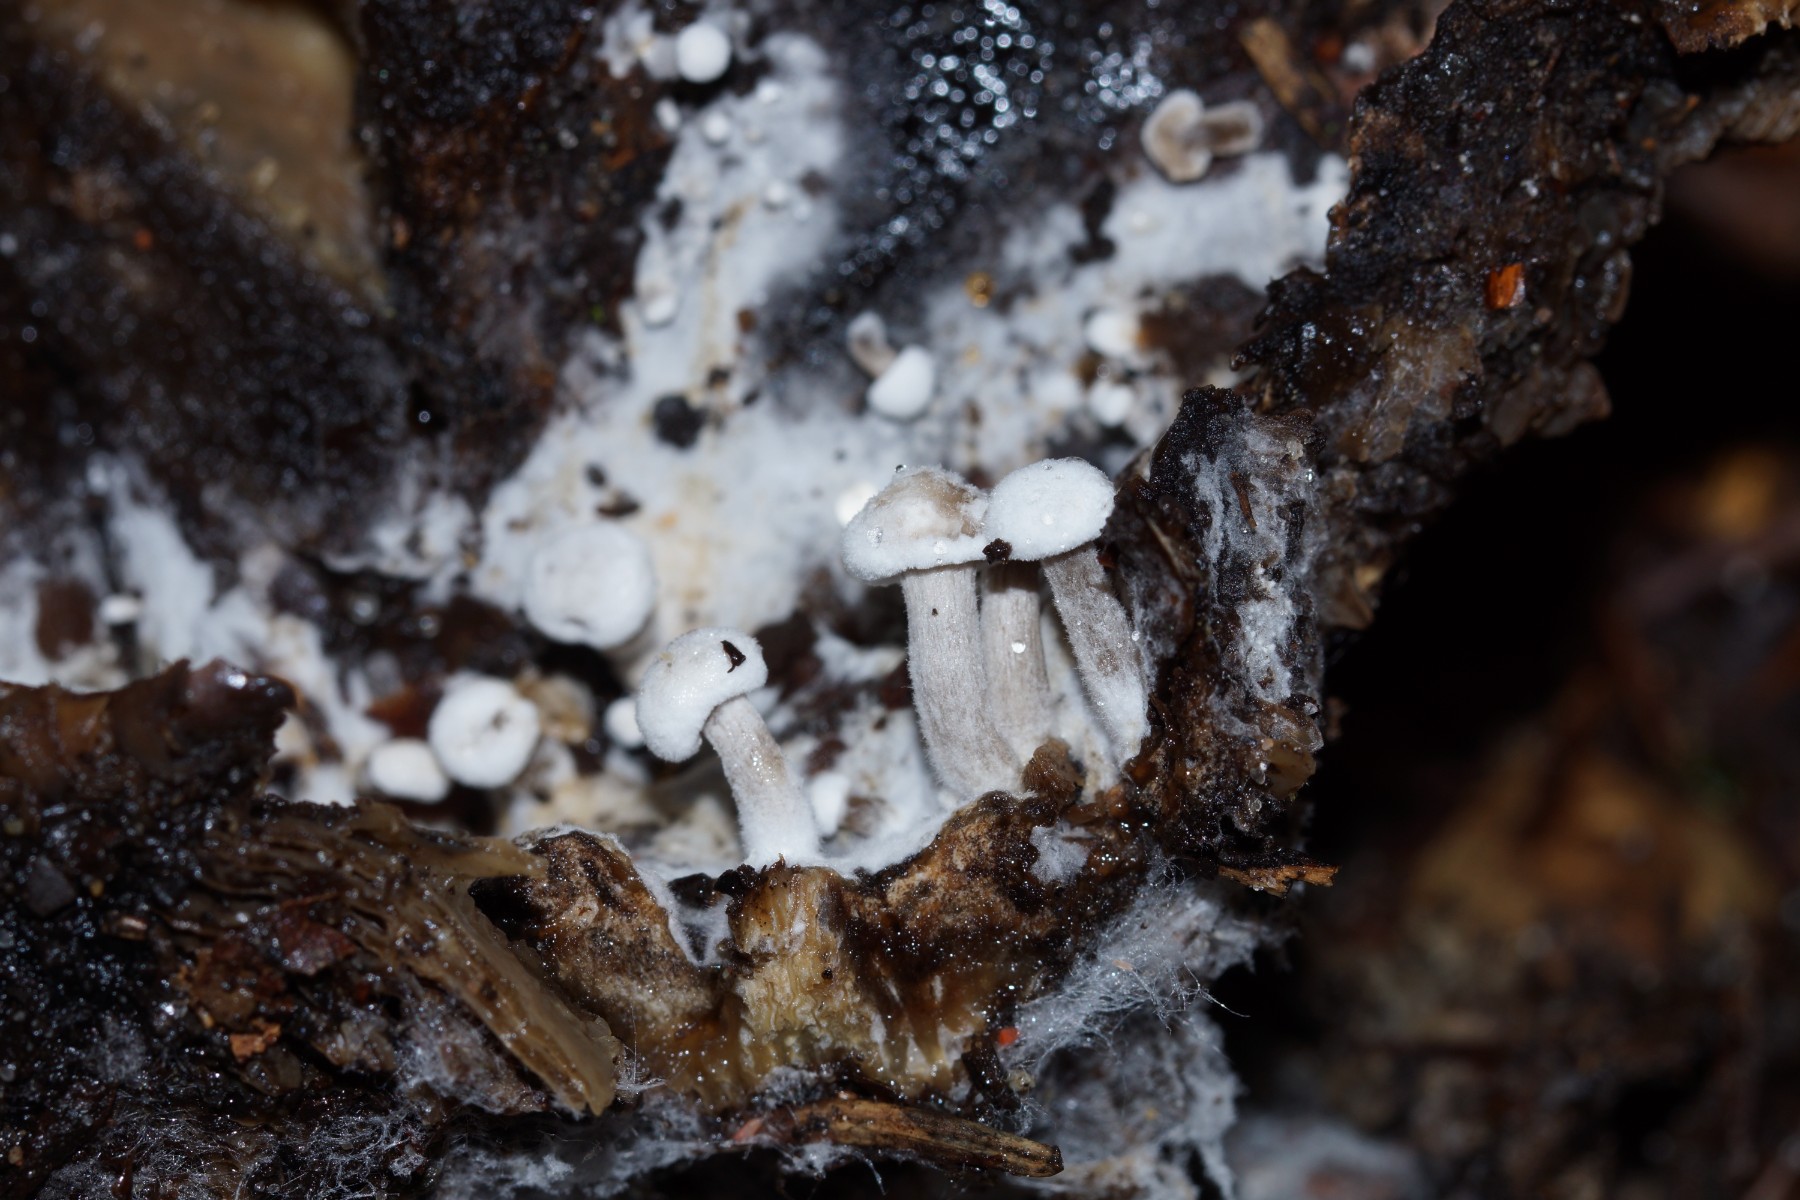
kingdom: Fungi
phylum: Basidiomycota
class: Agaricomycetes
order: Agaricales
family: Lyophyllaceae
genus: Asterophora
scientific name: Asterophora parasitica
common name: grå snyltehat
